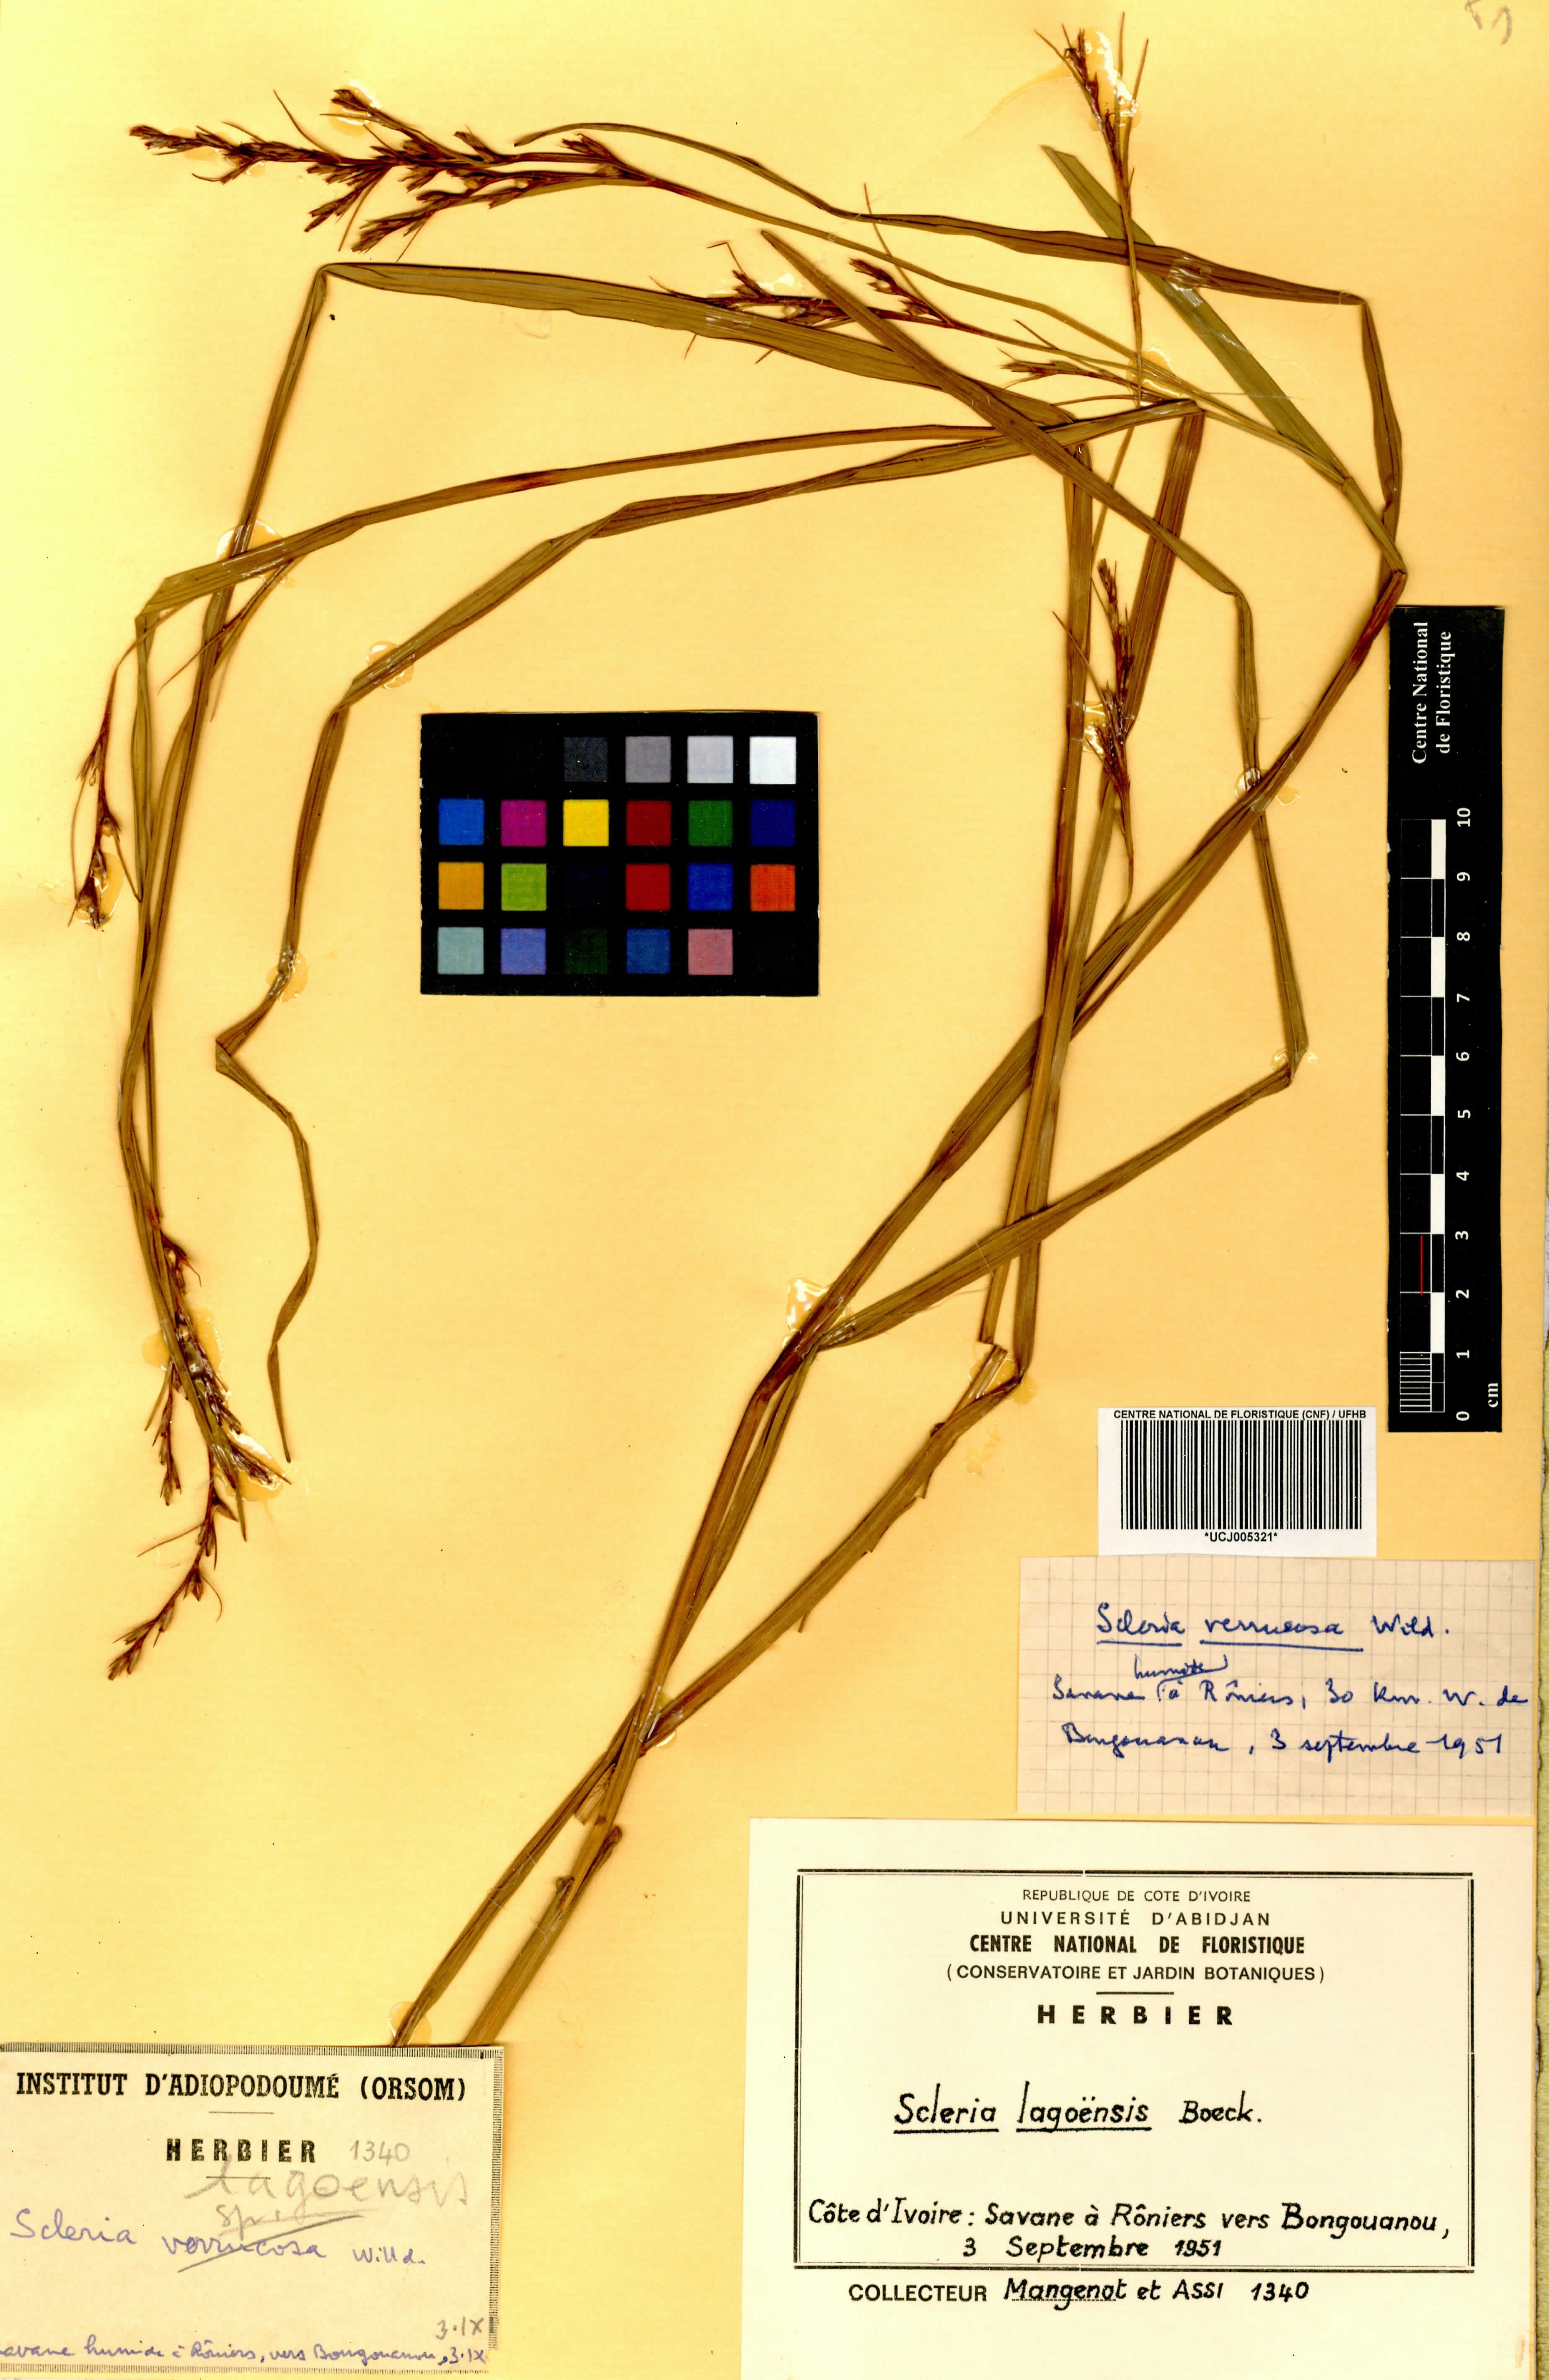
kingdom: Plantae
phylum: Tracheophyta
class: Liliopsida
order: Poales
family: Cyperaceae
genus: Scleria
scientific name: Scleria lagoensis
